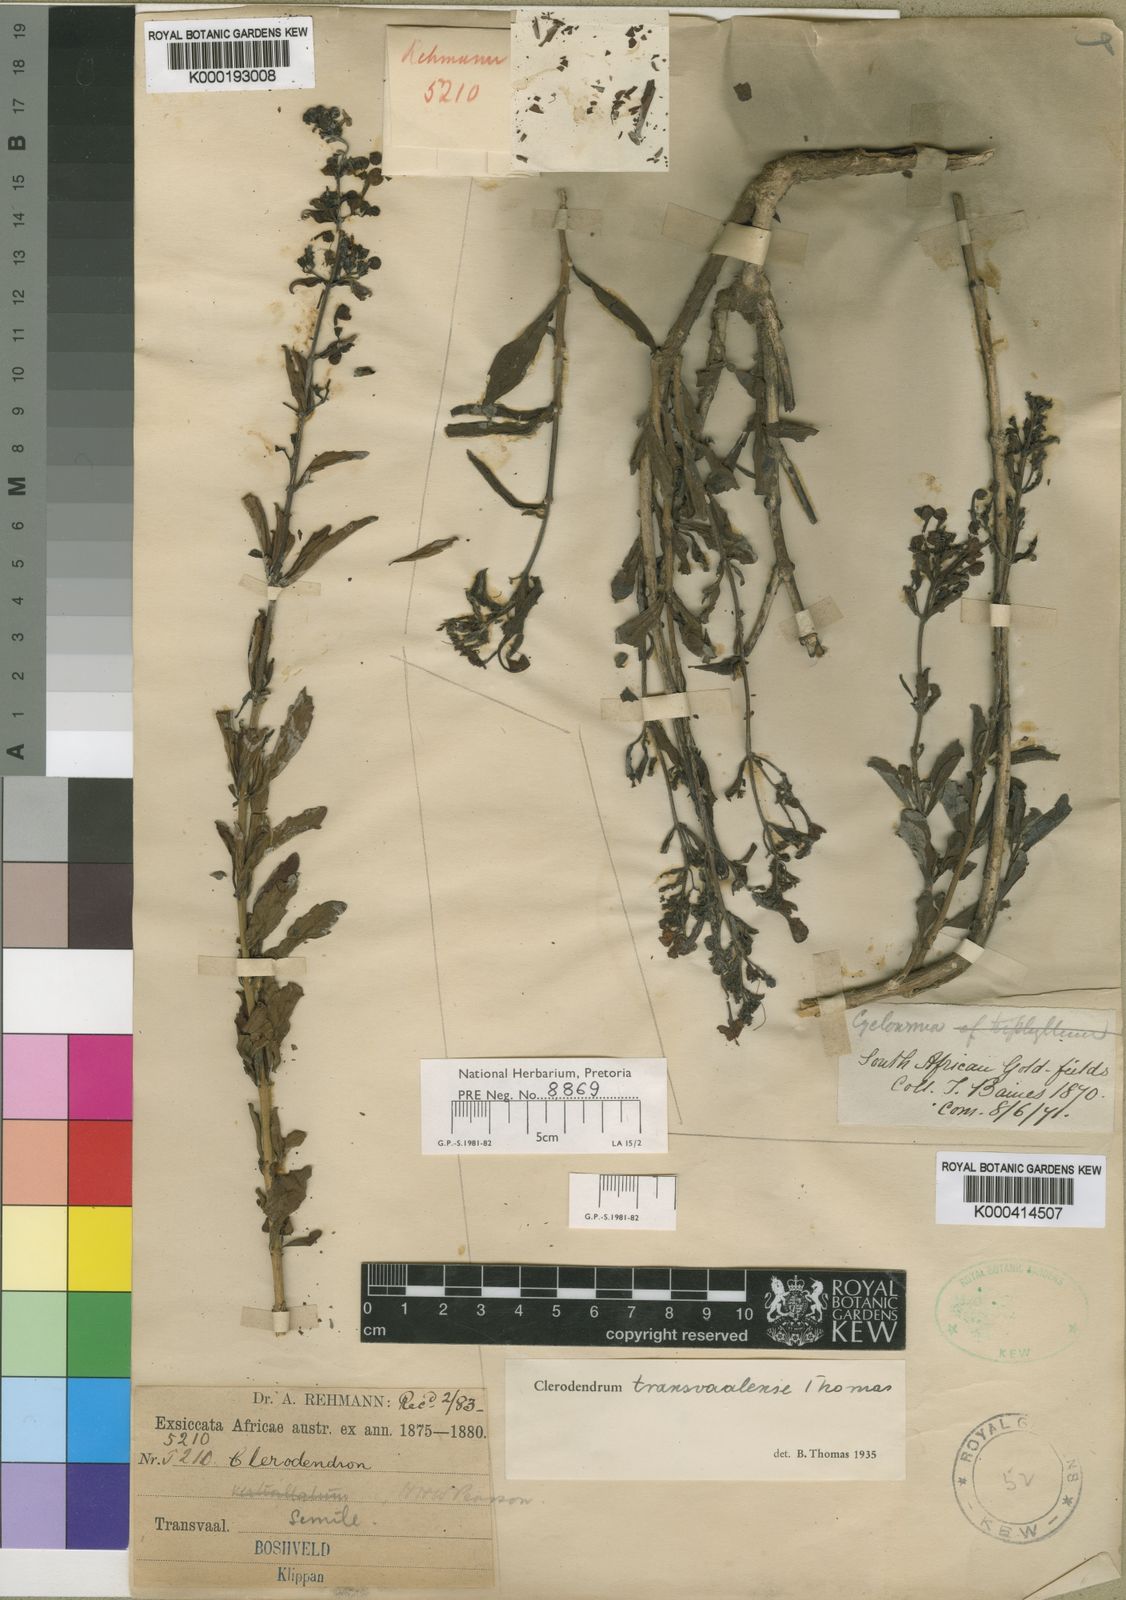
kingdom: Plantae
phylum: Tracheophyta
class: Magnoliopsida
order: Lamiales
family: Lamiaceae
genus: Clerodendrum
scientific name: Clerodendrum ternatum
